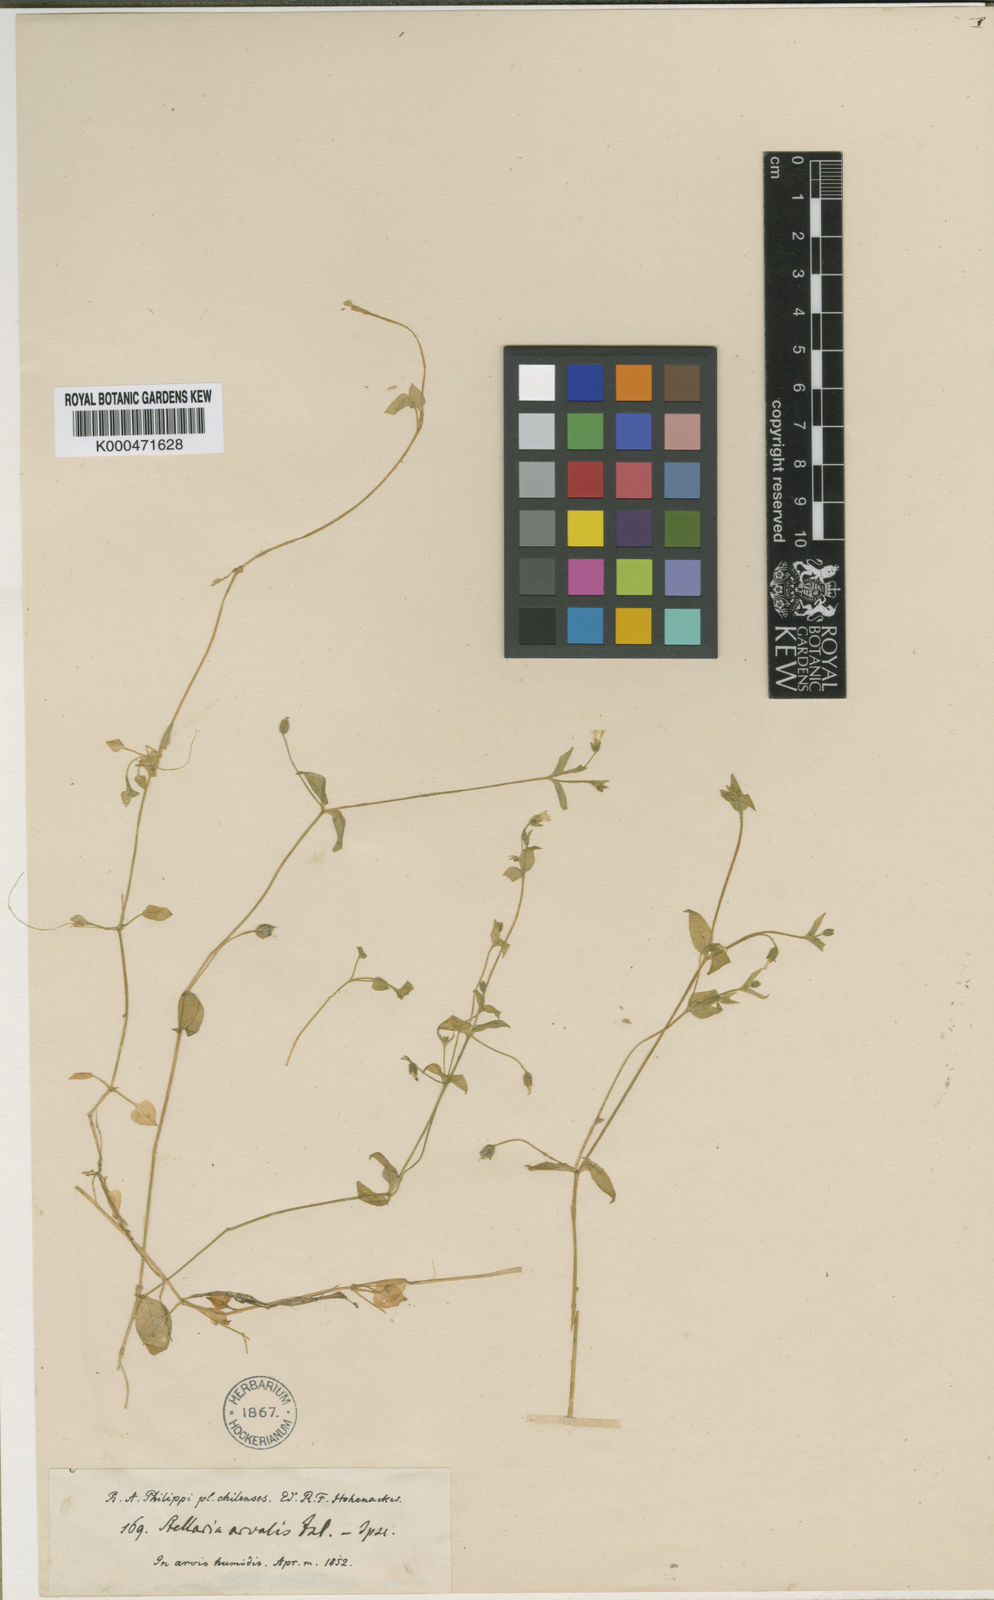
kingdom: Plantae
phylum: Tracheophyta
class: Magnoliopsida
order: Caryophyllales
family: Caryophyllaceae
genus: Stellaria
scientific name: Stellaria arvalis
